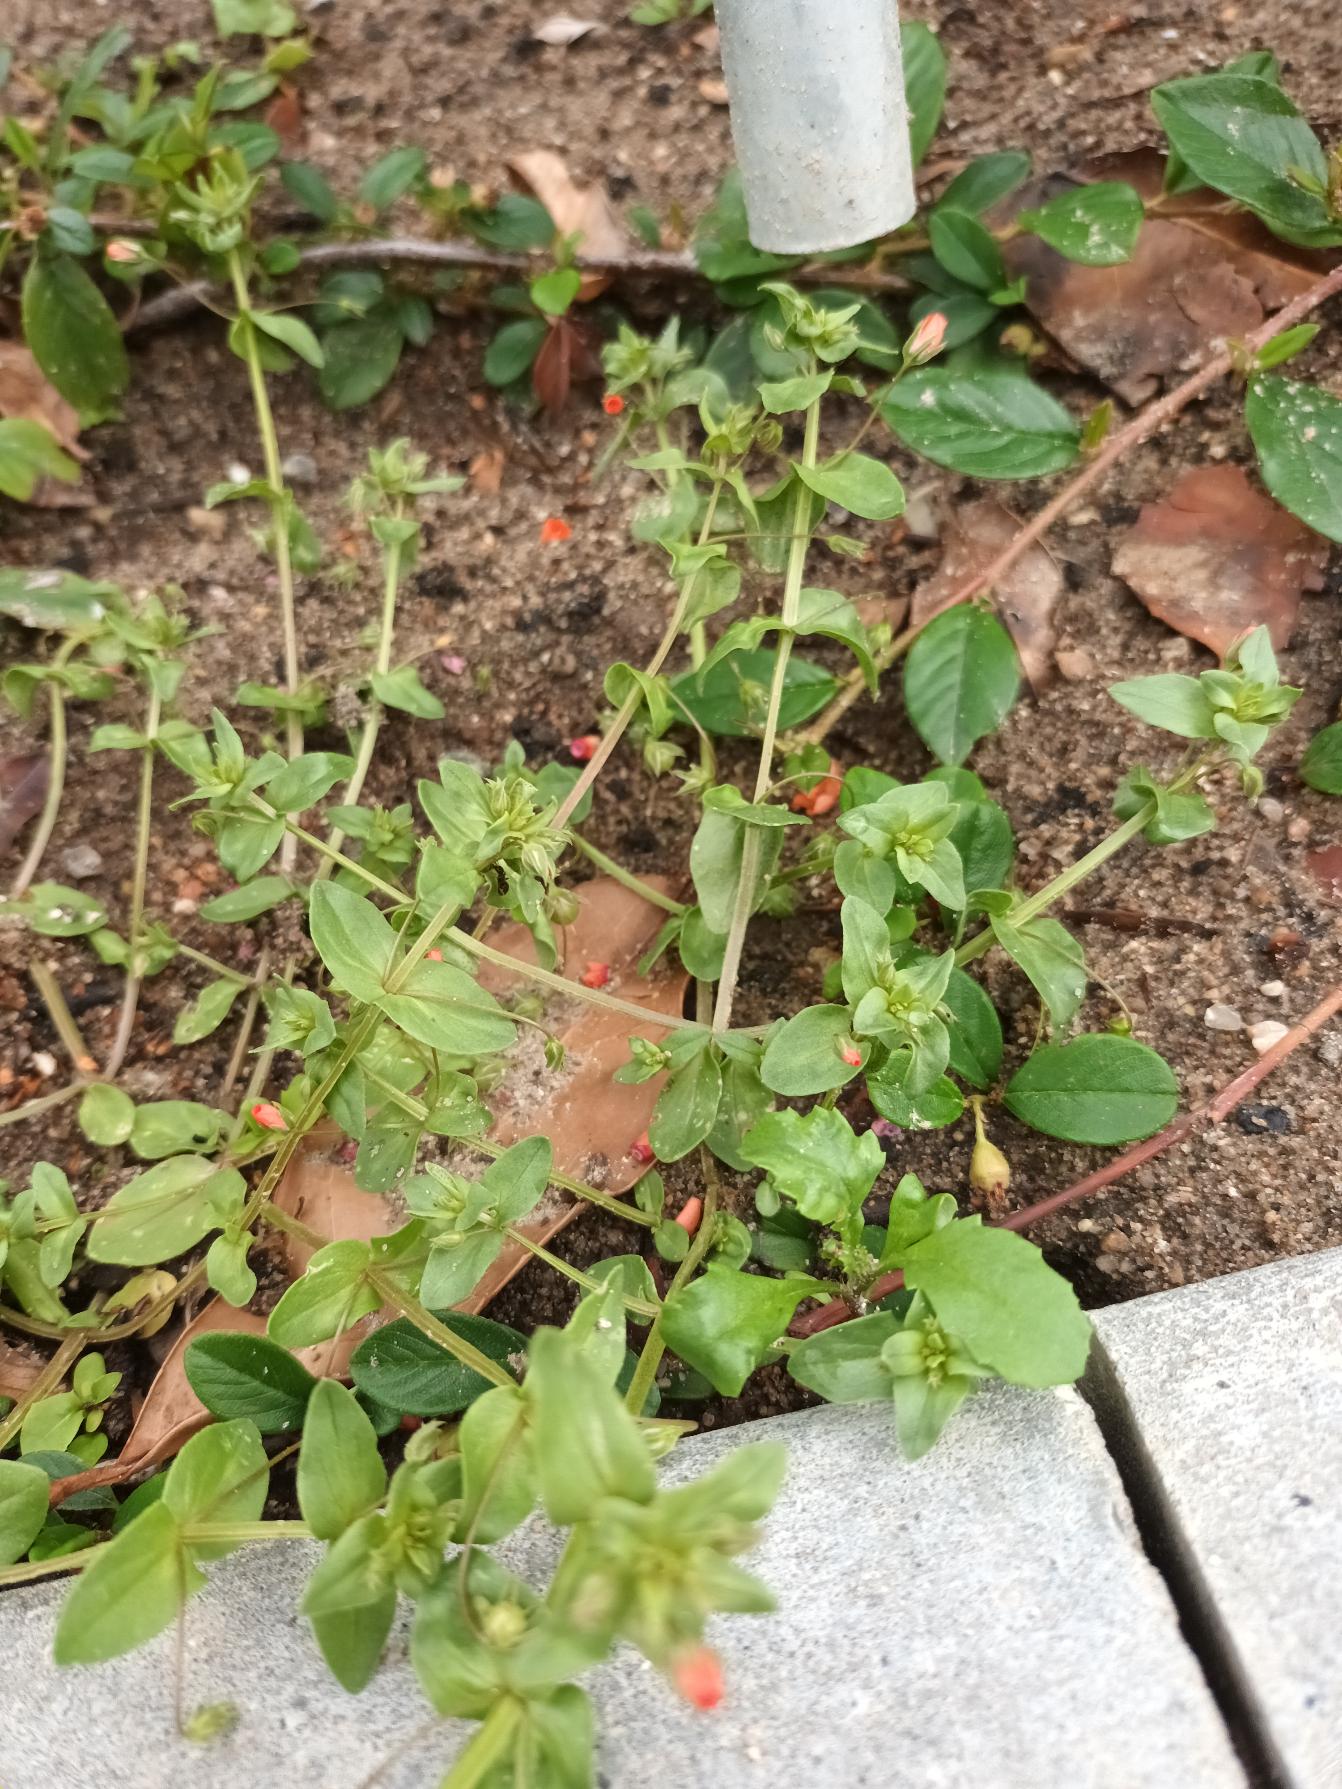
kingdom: Plantae
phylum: Tracheophyta
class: Magnoliopsida
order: Ericales
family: Primulaceae
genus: Lysimachia
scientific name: Lysimachia arvensis
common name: Rød arve
